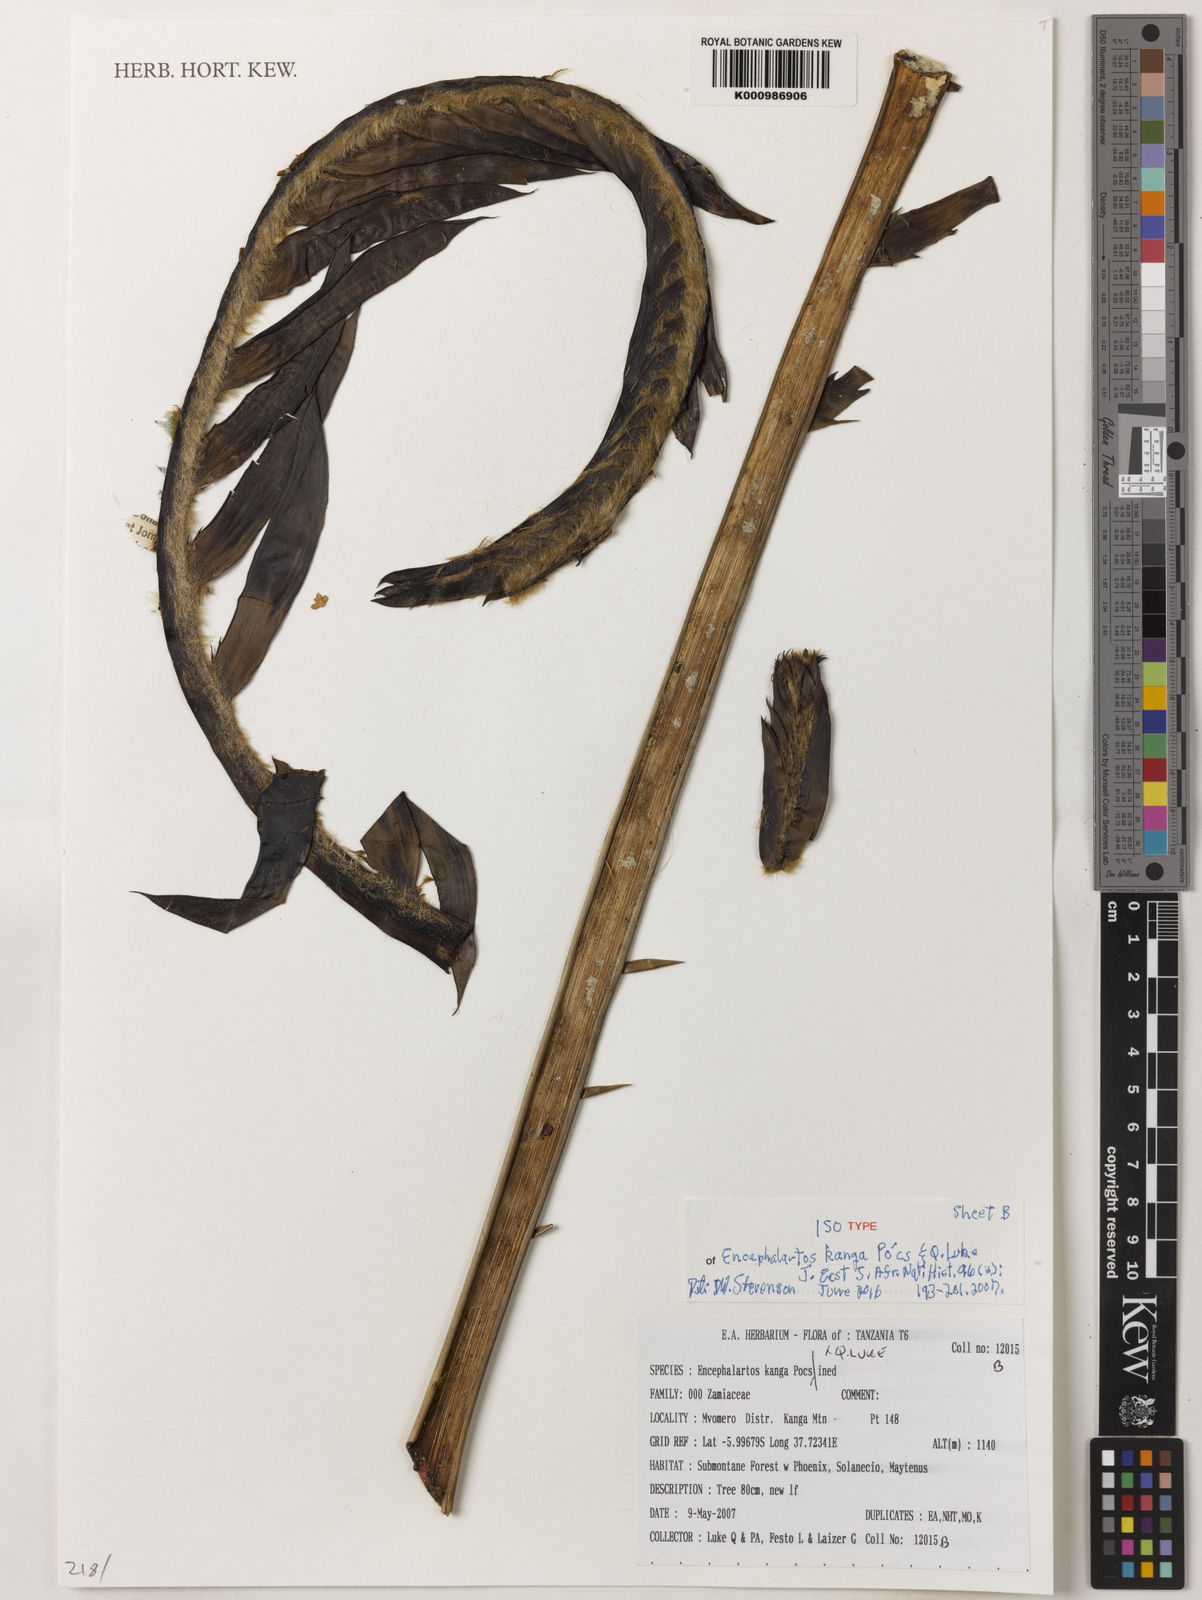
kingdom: Plantae
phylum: Tracheophyta
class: Cycadopsida
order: Cycadales
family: Zamiaceae
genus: Encephalartos
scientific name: Encephalartos
